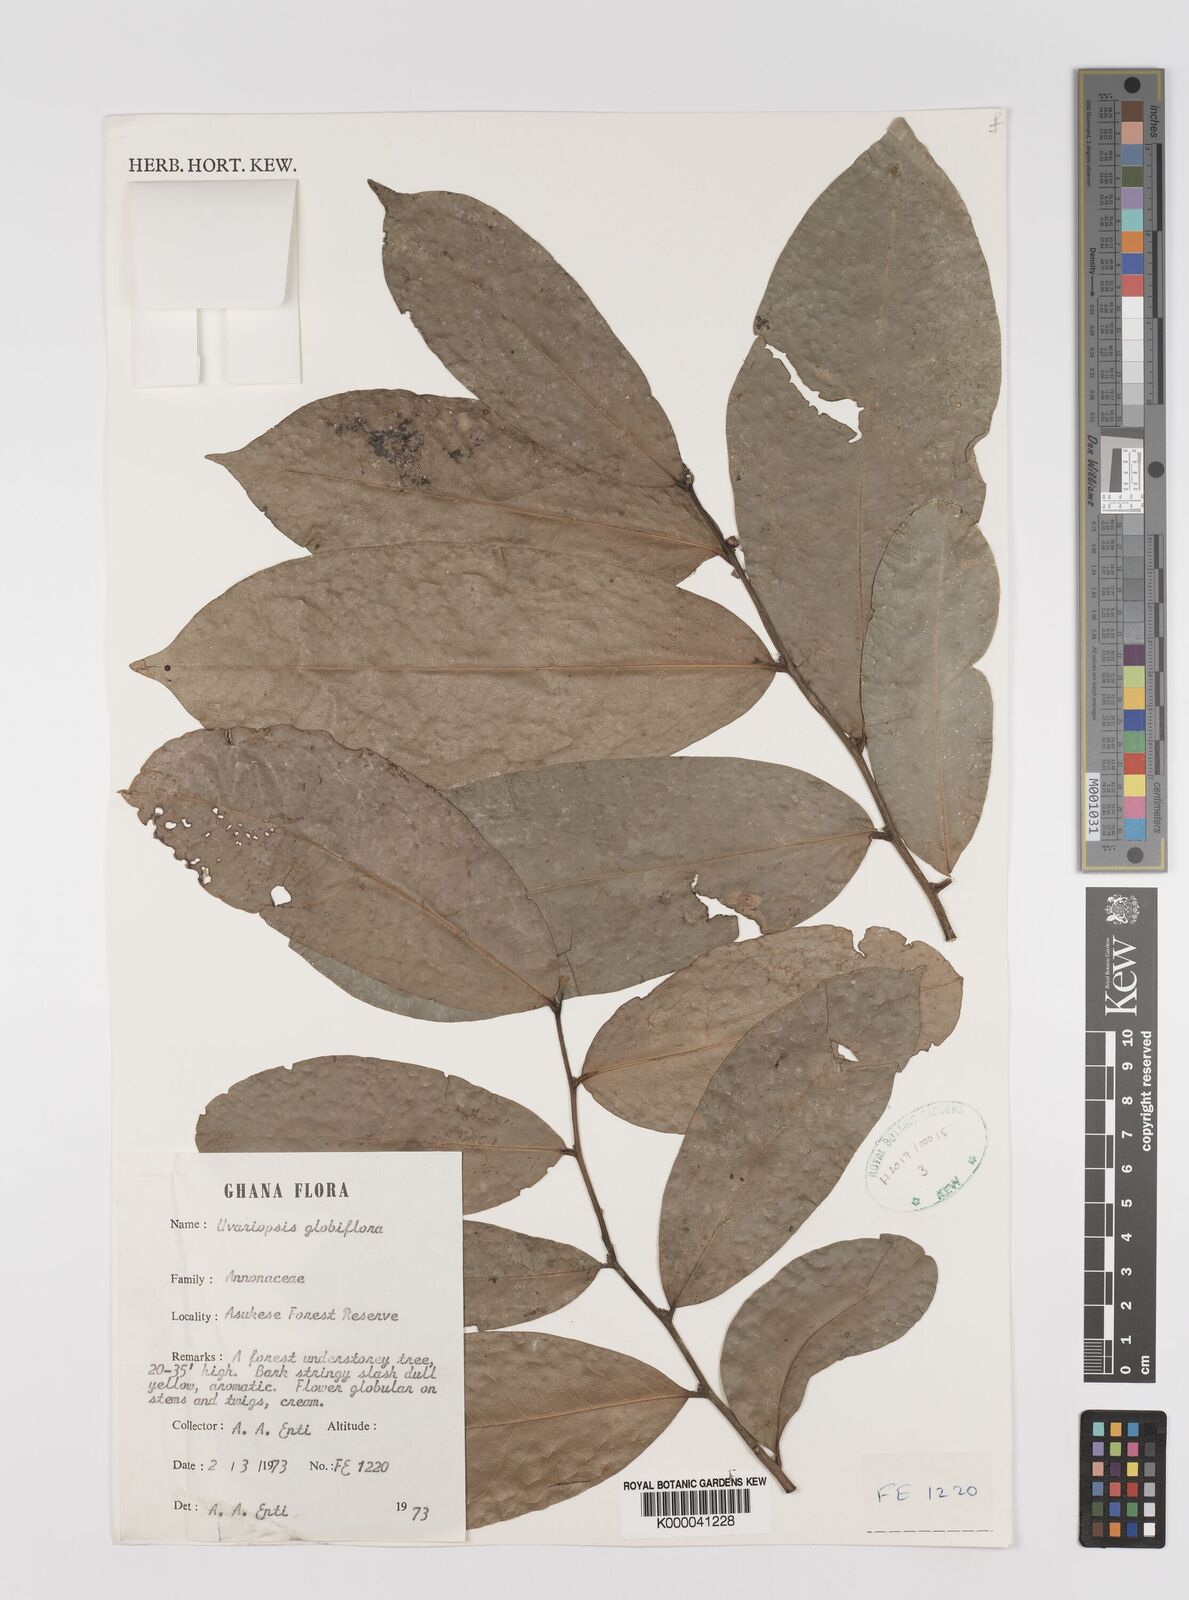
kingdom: Plantae
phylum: Tracheophyta
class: Magnoliopsida
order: Magnoliales
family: Annonaceae
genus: Uvaria
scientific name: Uvaria
